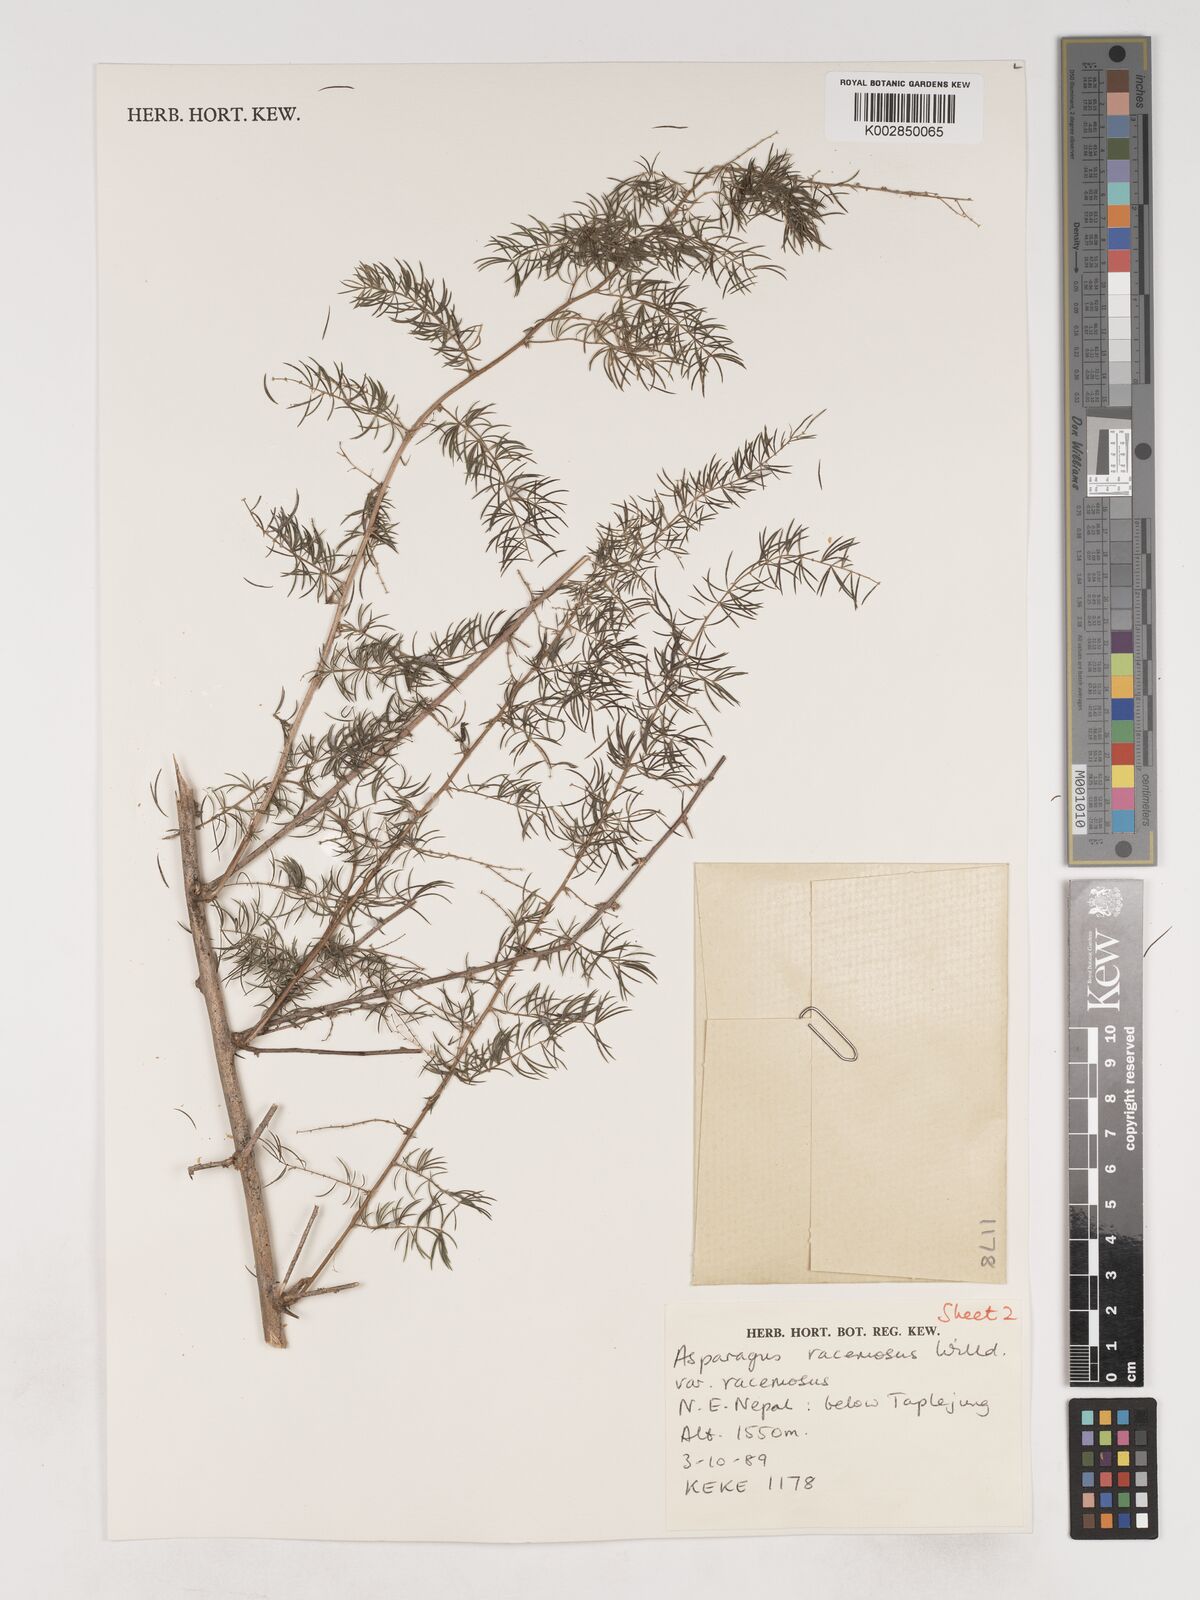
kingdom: Plantae
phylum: Tracheophyta
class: Liliopsida
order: Asparagales
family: Asparagaceae
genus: Asparagus
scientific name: Asparagus racemosus
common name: Asparagus-fern
